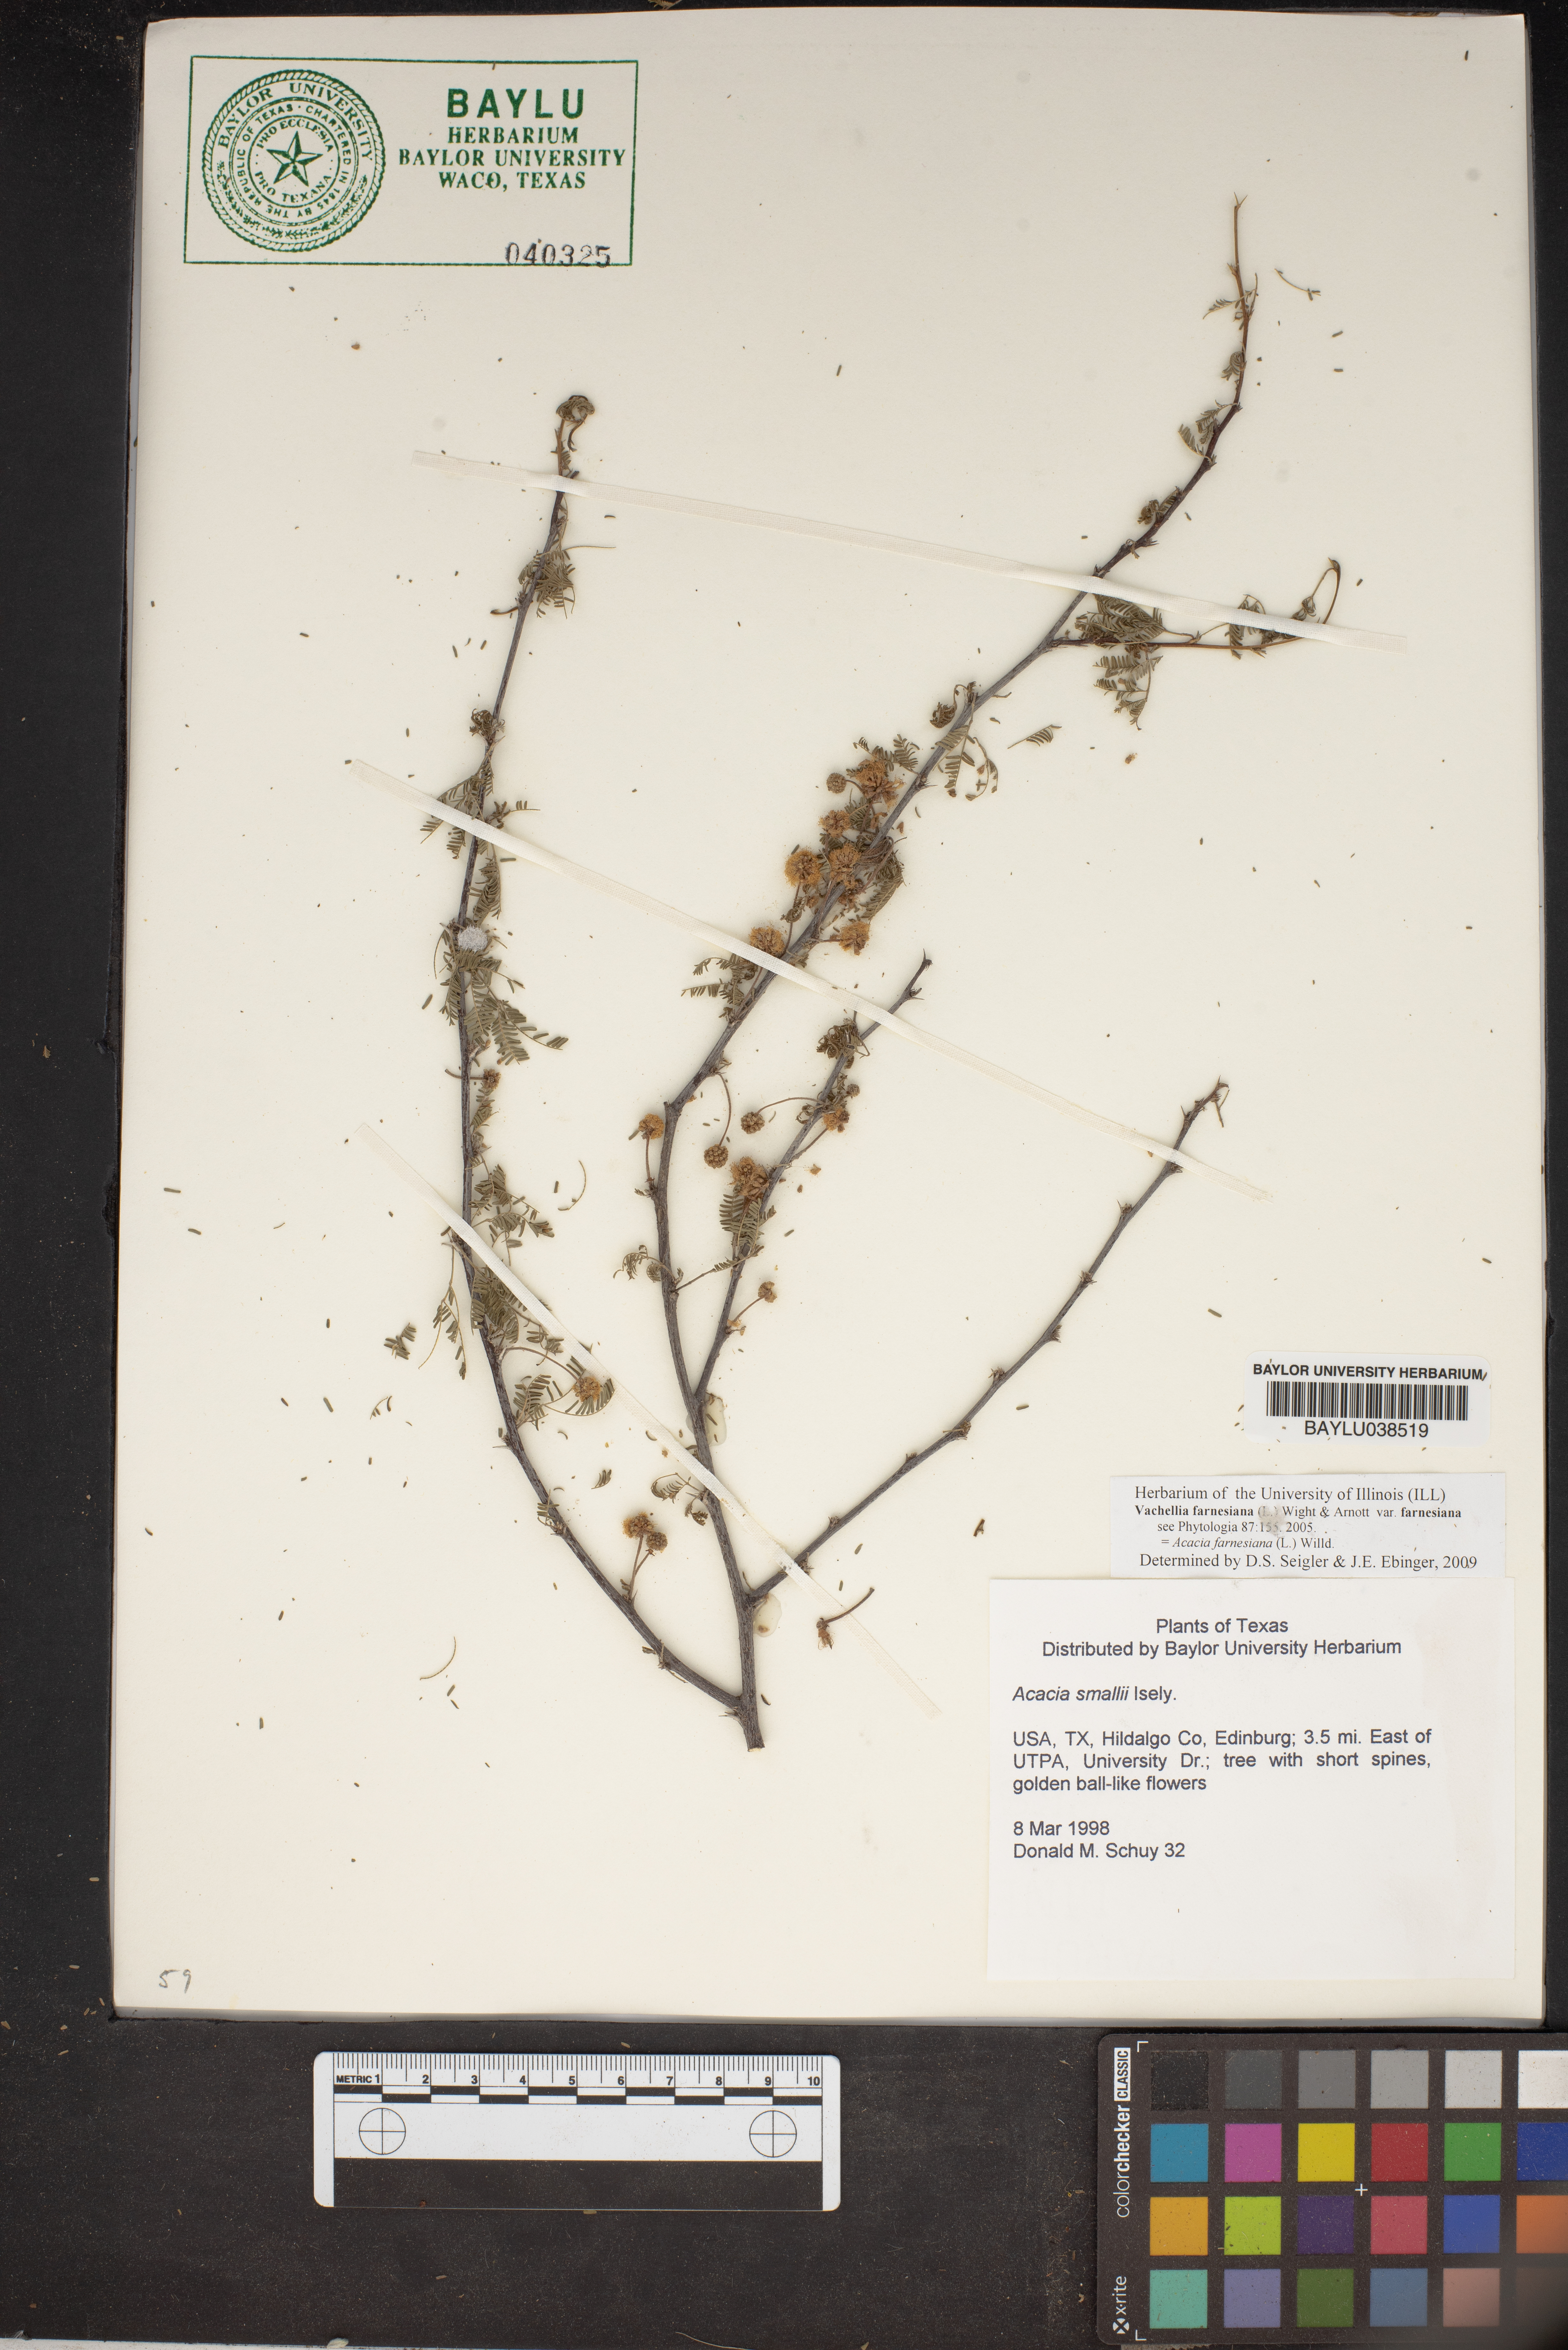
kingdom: Plantae
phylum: Tracheophyta
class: Magnoliopsida
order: Fabales
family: Fabaceae
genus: Vachellia
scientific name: Vachellia farnesiana
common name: Sweet acacia
